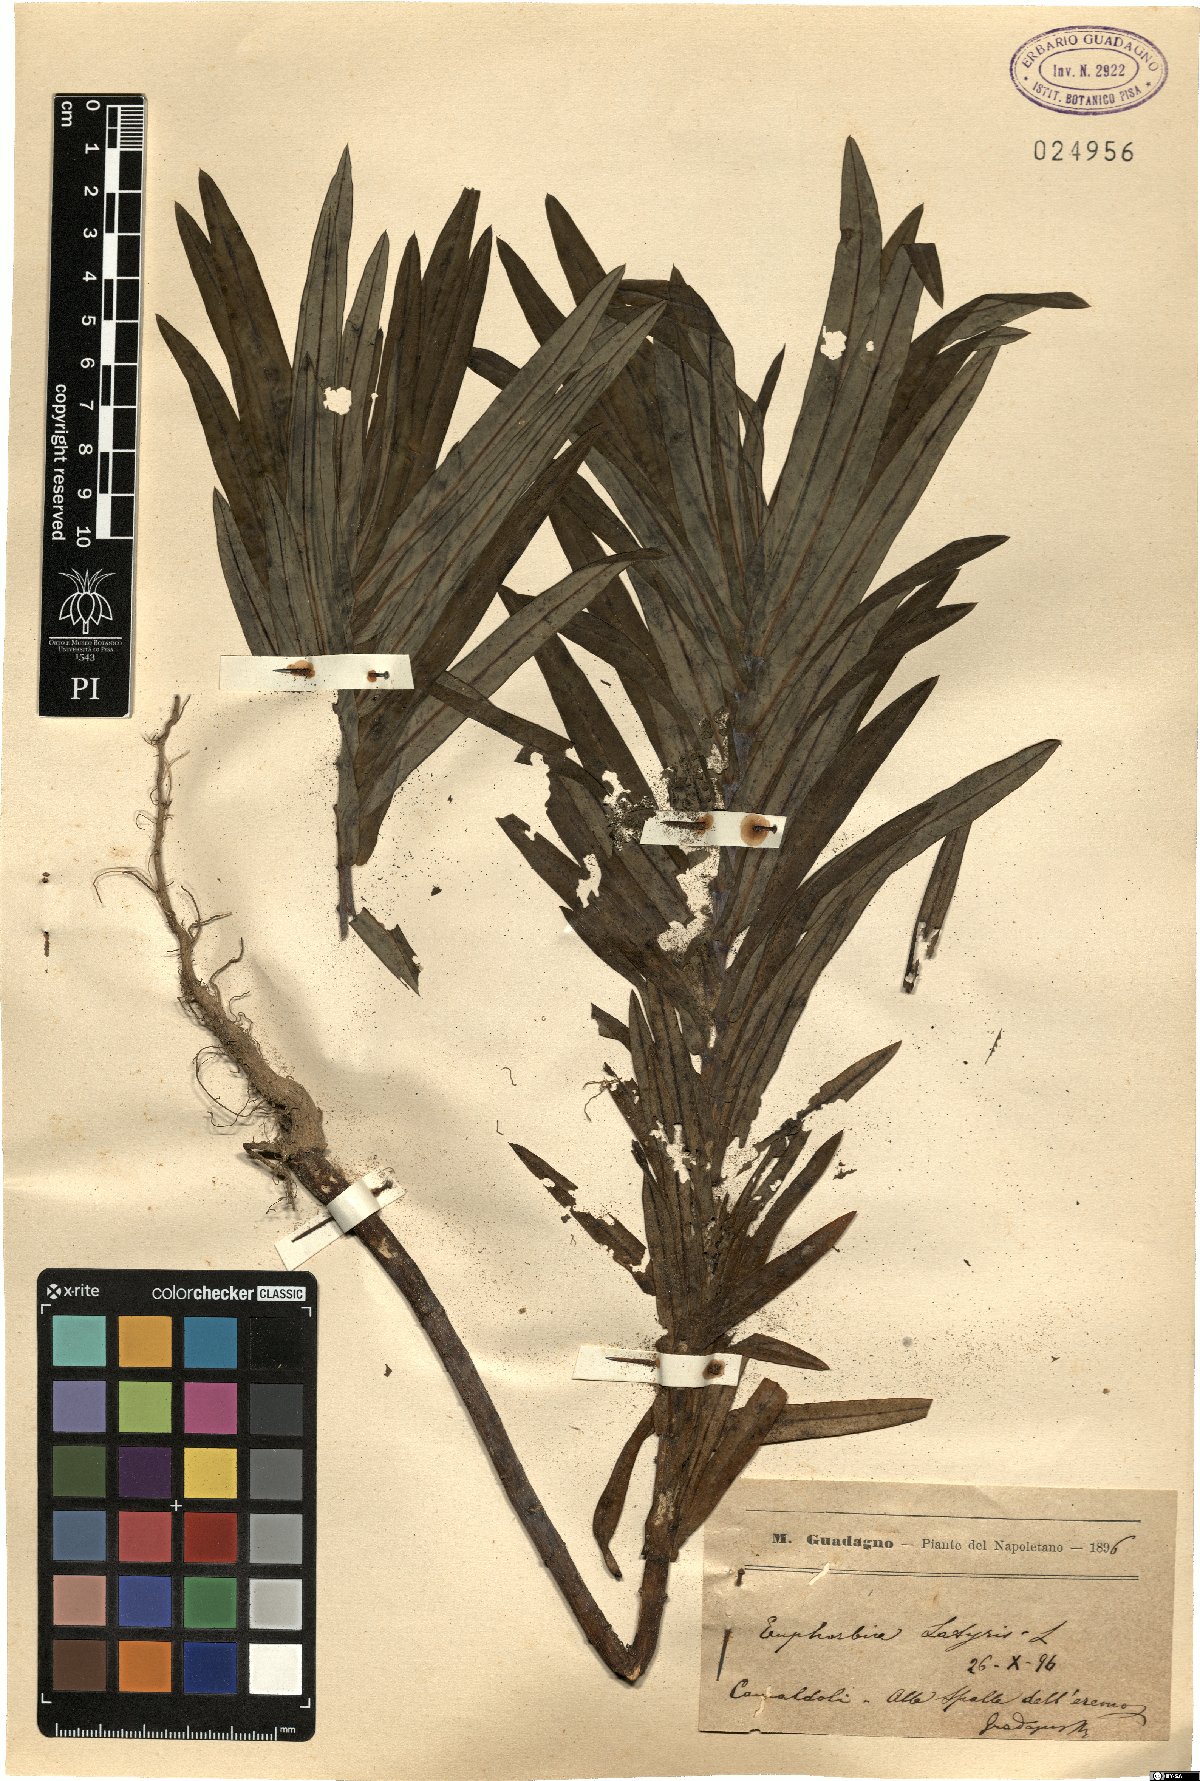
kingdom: Plantae
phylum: Tracheophyta
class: Magnoliopsida
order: Malpighiales
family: Euphorbiaceae
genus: Euphorbia
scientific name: Euphorbia lathyris
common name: Caper spurge
